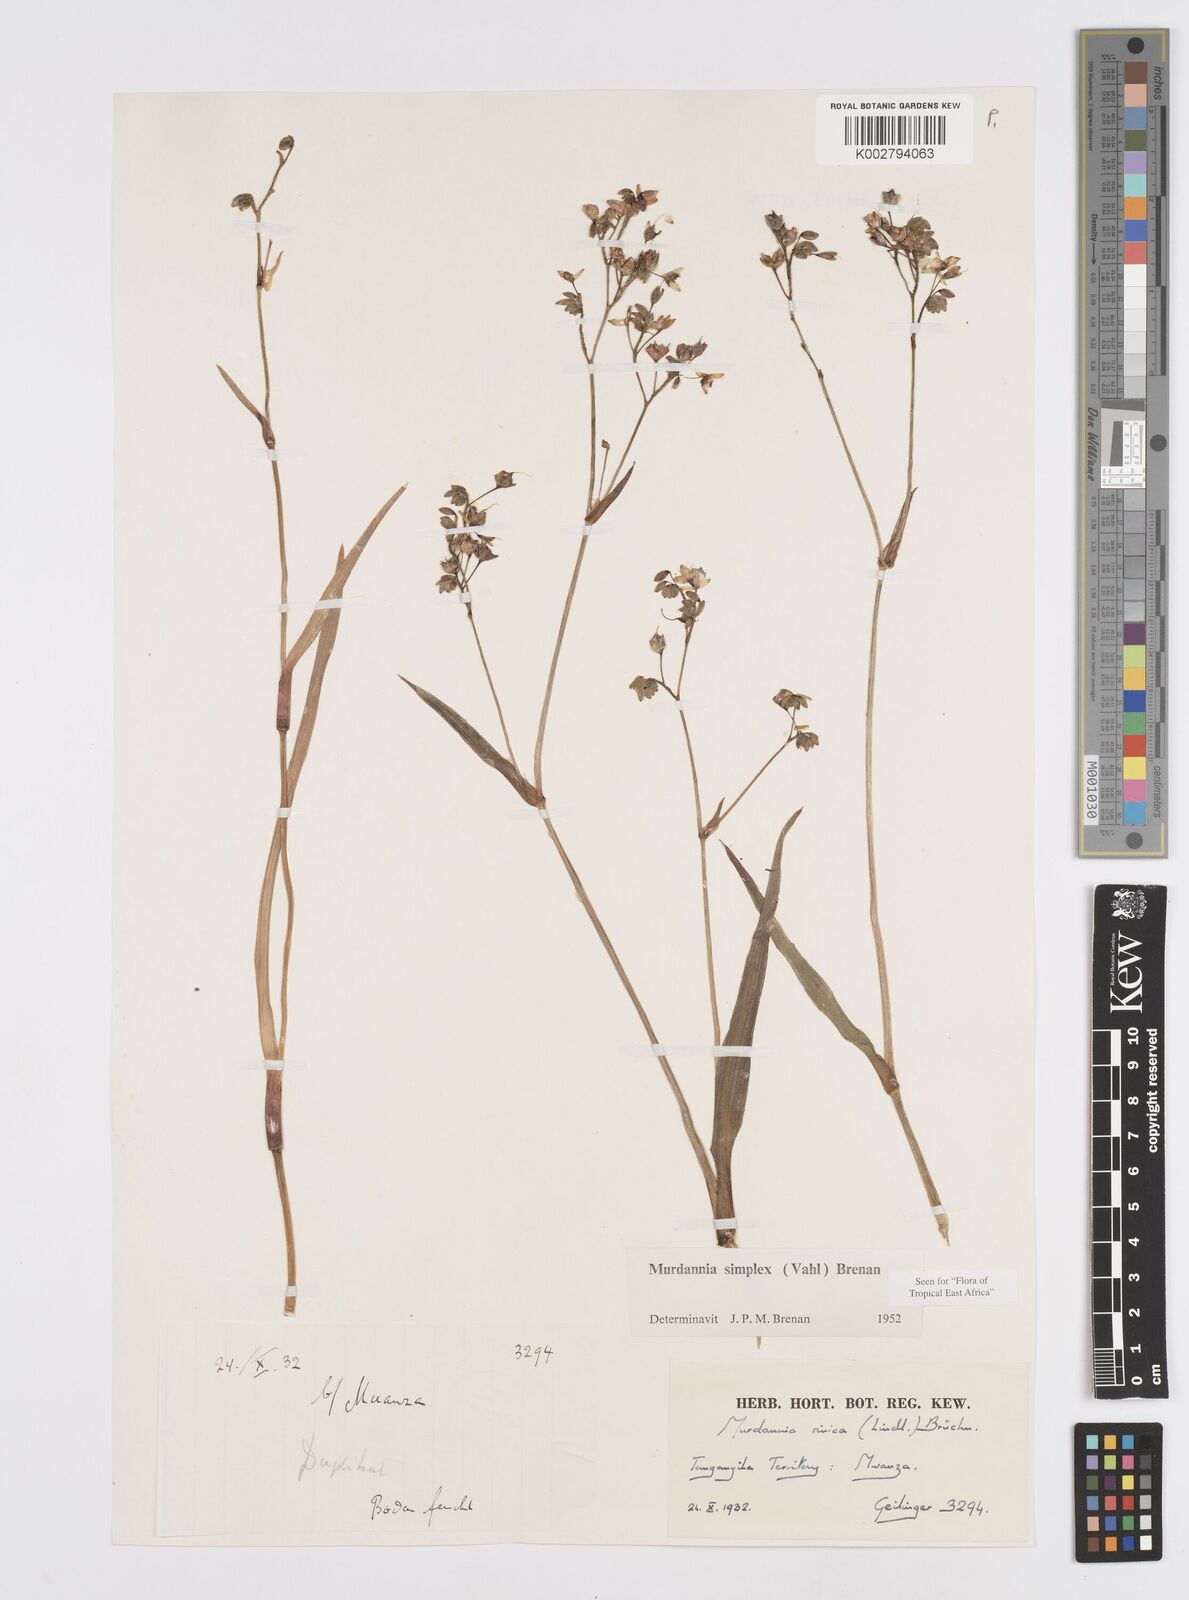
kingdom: Plantae
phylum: Tracheophyta
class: Liliopsida
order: Commelinales
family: Commelinaceae
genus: Murdannia
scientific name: Murdannia simplex
